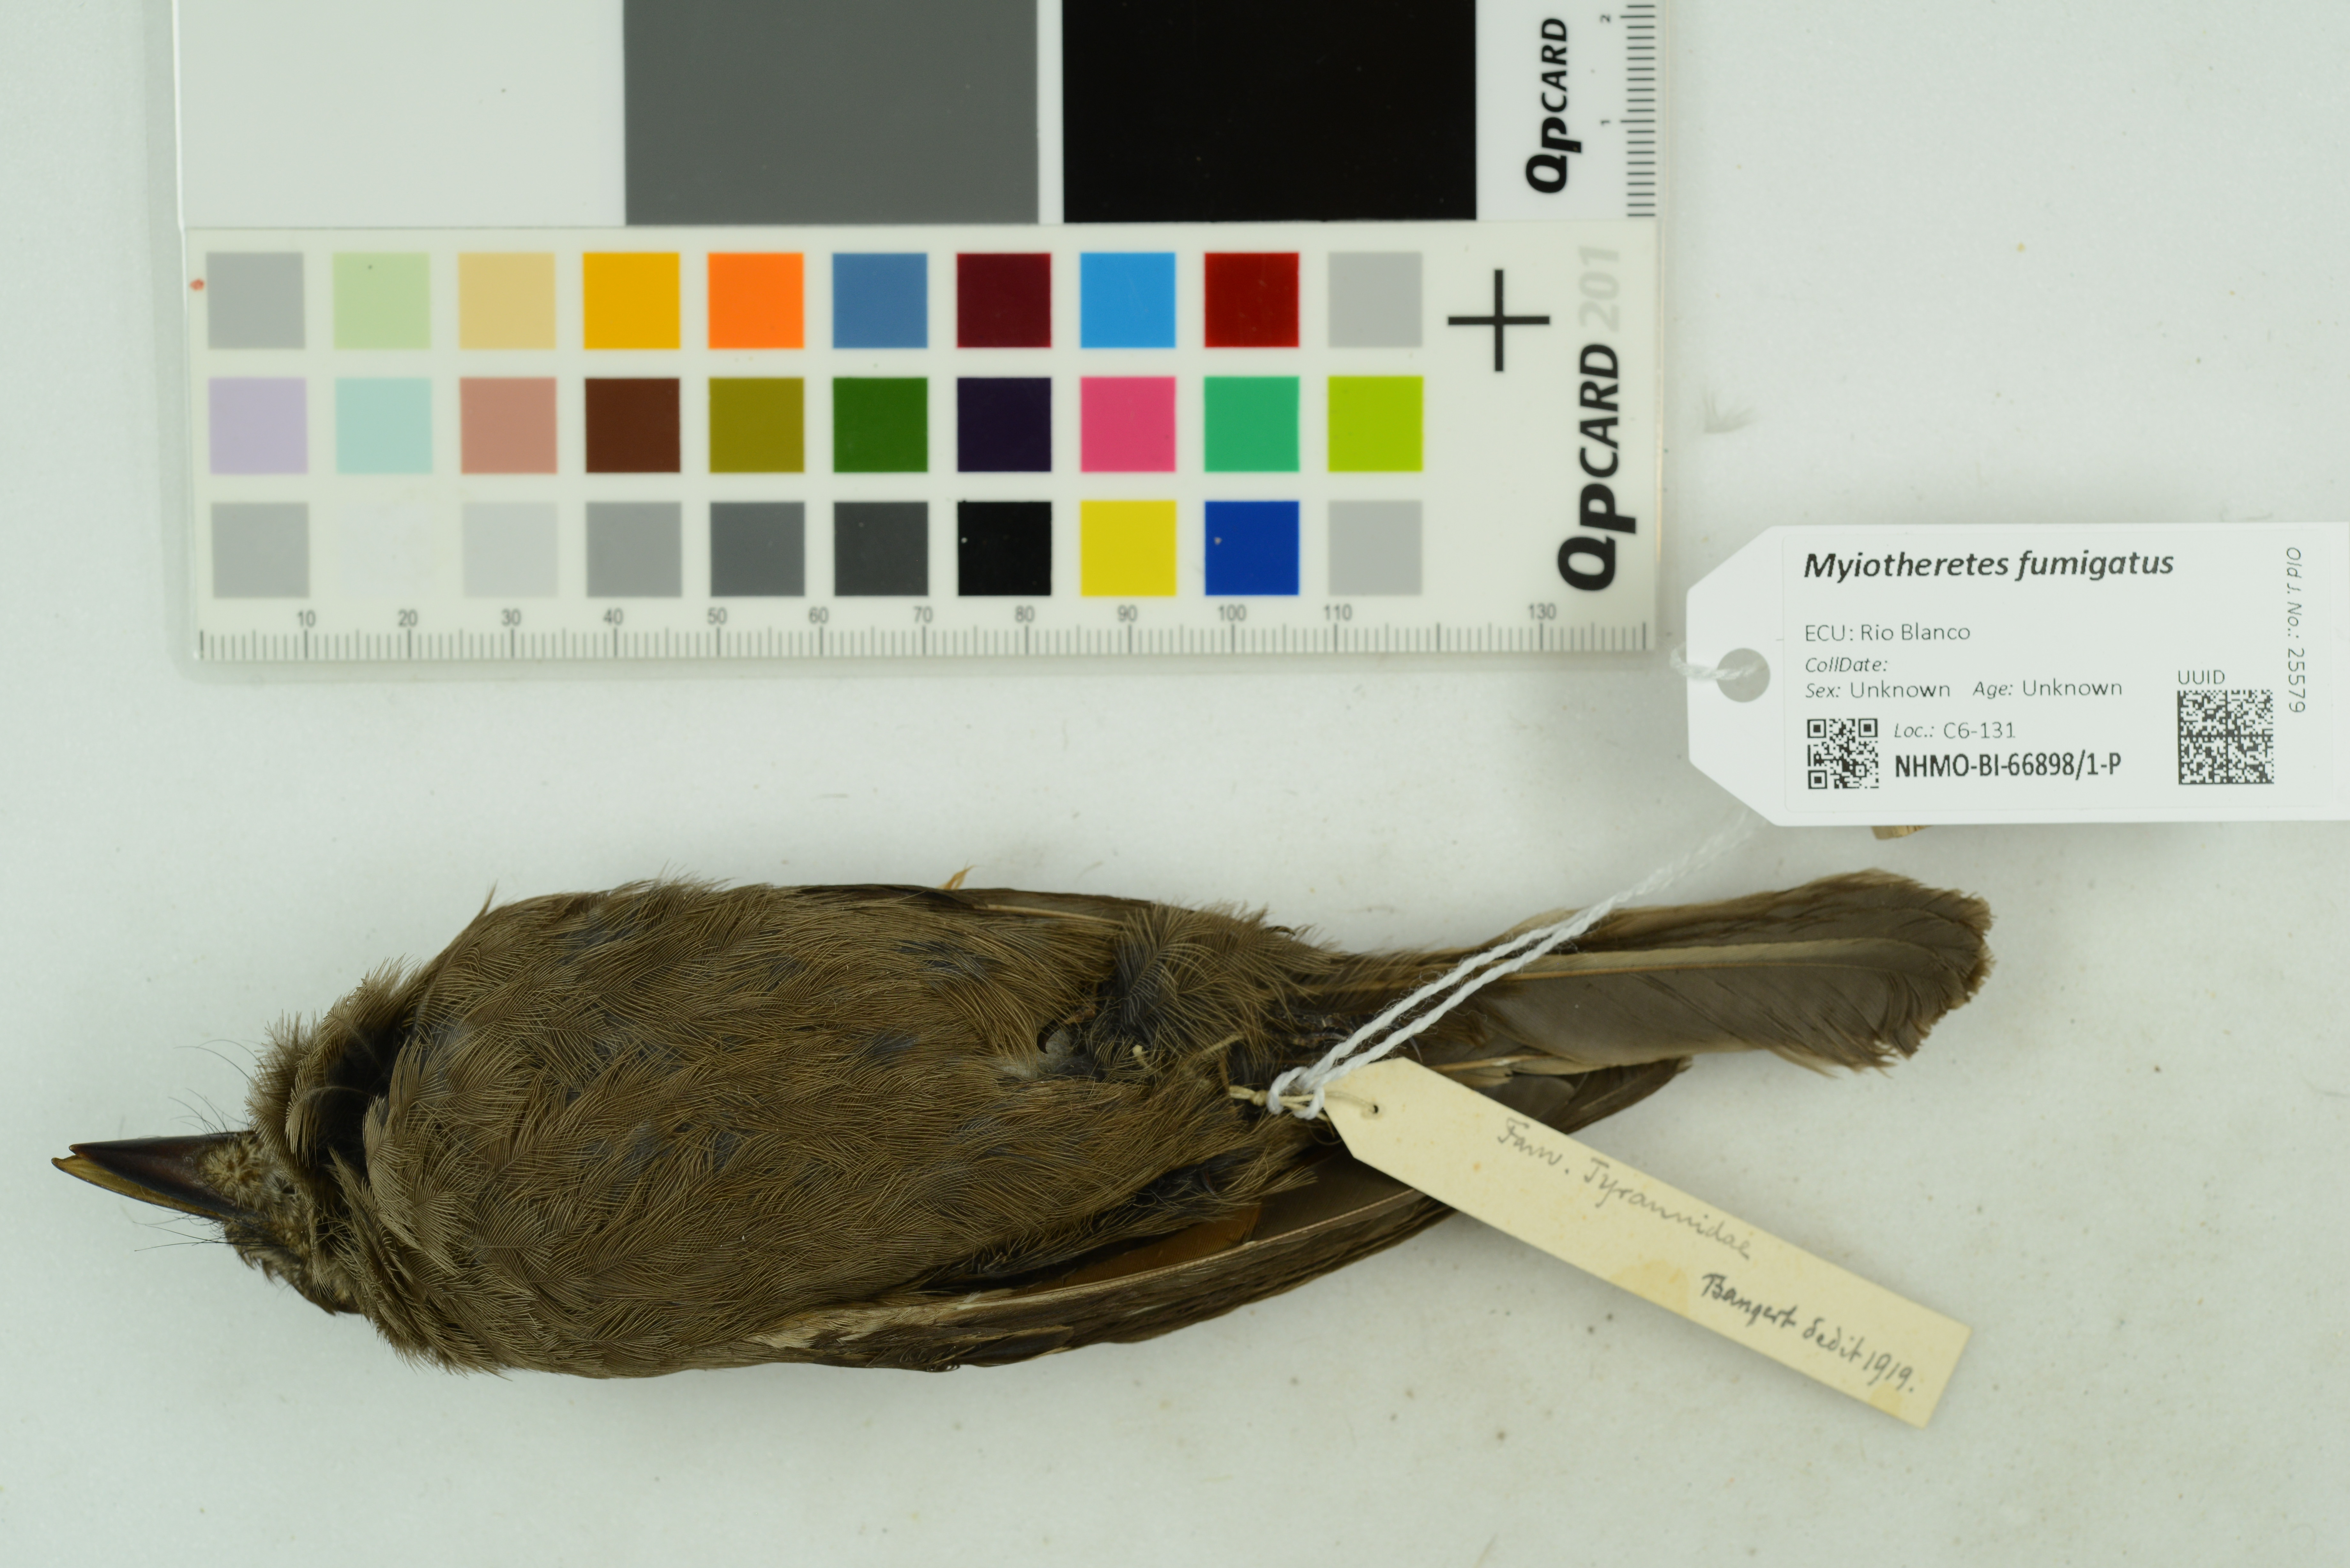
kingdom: Animalia
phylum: Chordata
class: Aves
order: Passeriformes
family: Tyrannidae
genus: Myiotheretes
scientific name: Myiotheretes fumigatus
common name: Smoky bush tyrant
